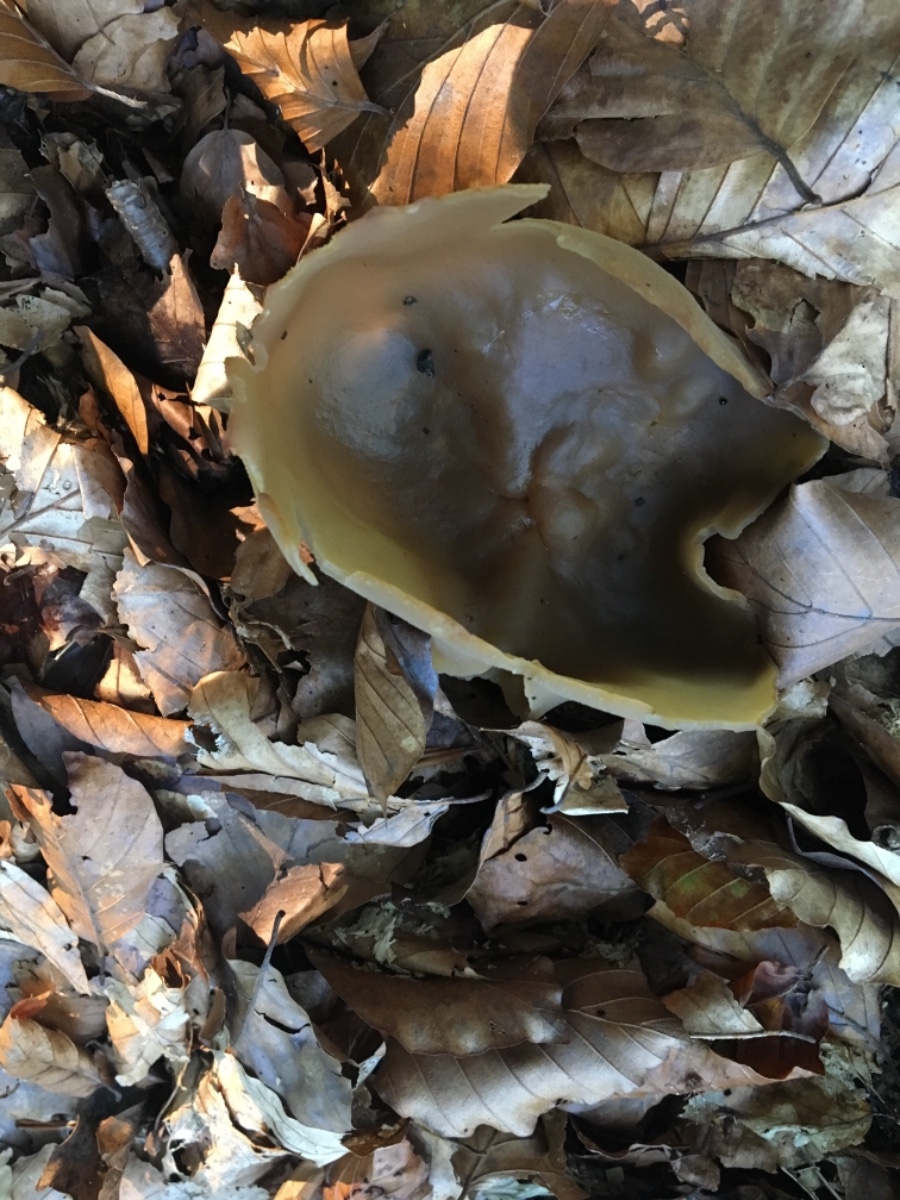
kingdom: Fungi
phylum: Ascomycota
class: Pezizomycetes
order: Pezizales
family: Pezizaceae
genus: Peziza
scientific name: Peziza
